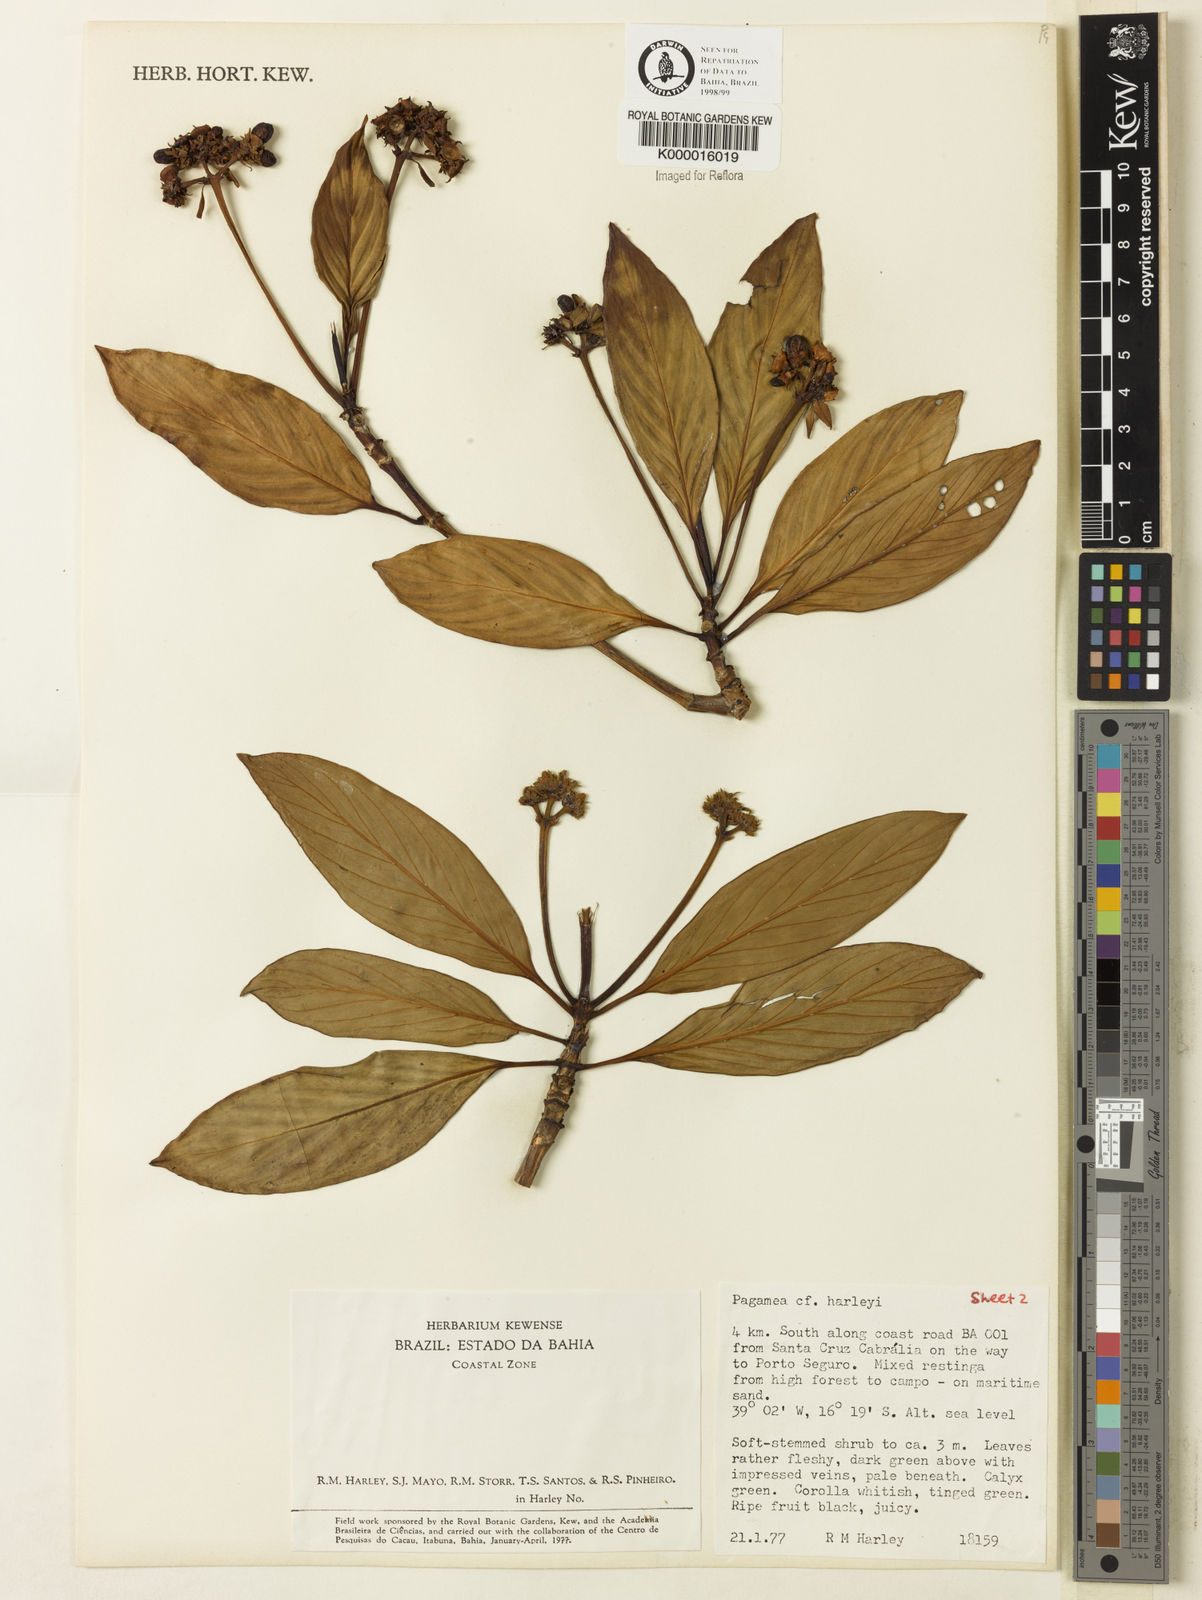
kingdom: Plantae
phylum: Tracheophyta
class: Magnoliopsida
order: Gentianales
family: Rubiaceae
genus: Pagamea
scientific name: Pagamea harleyi
